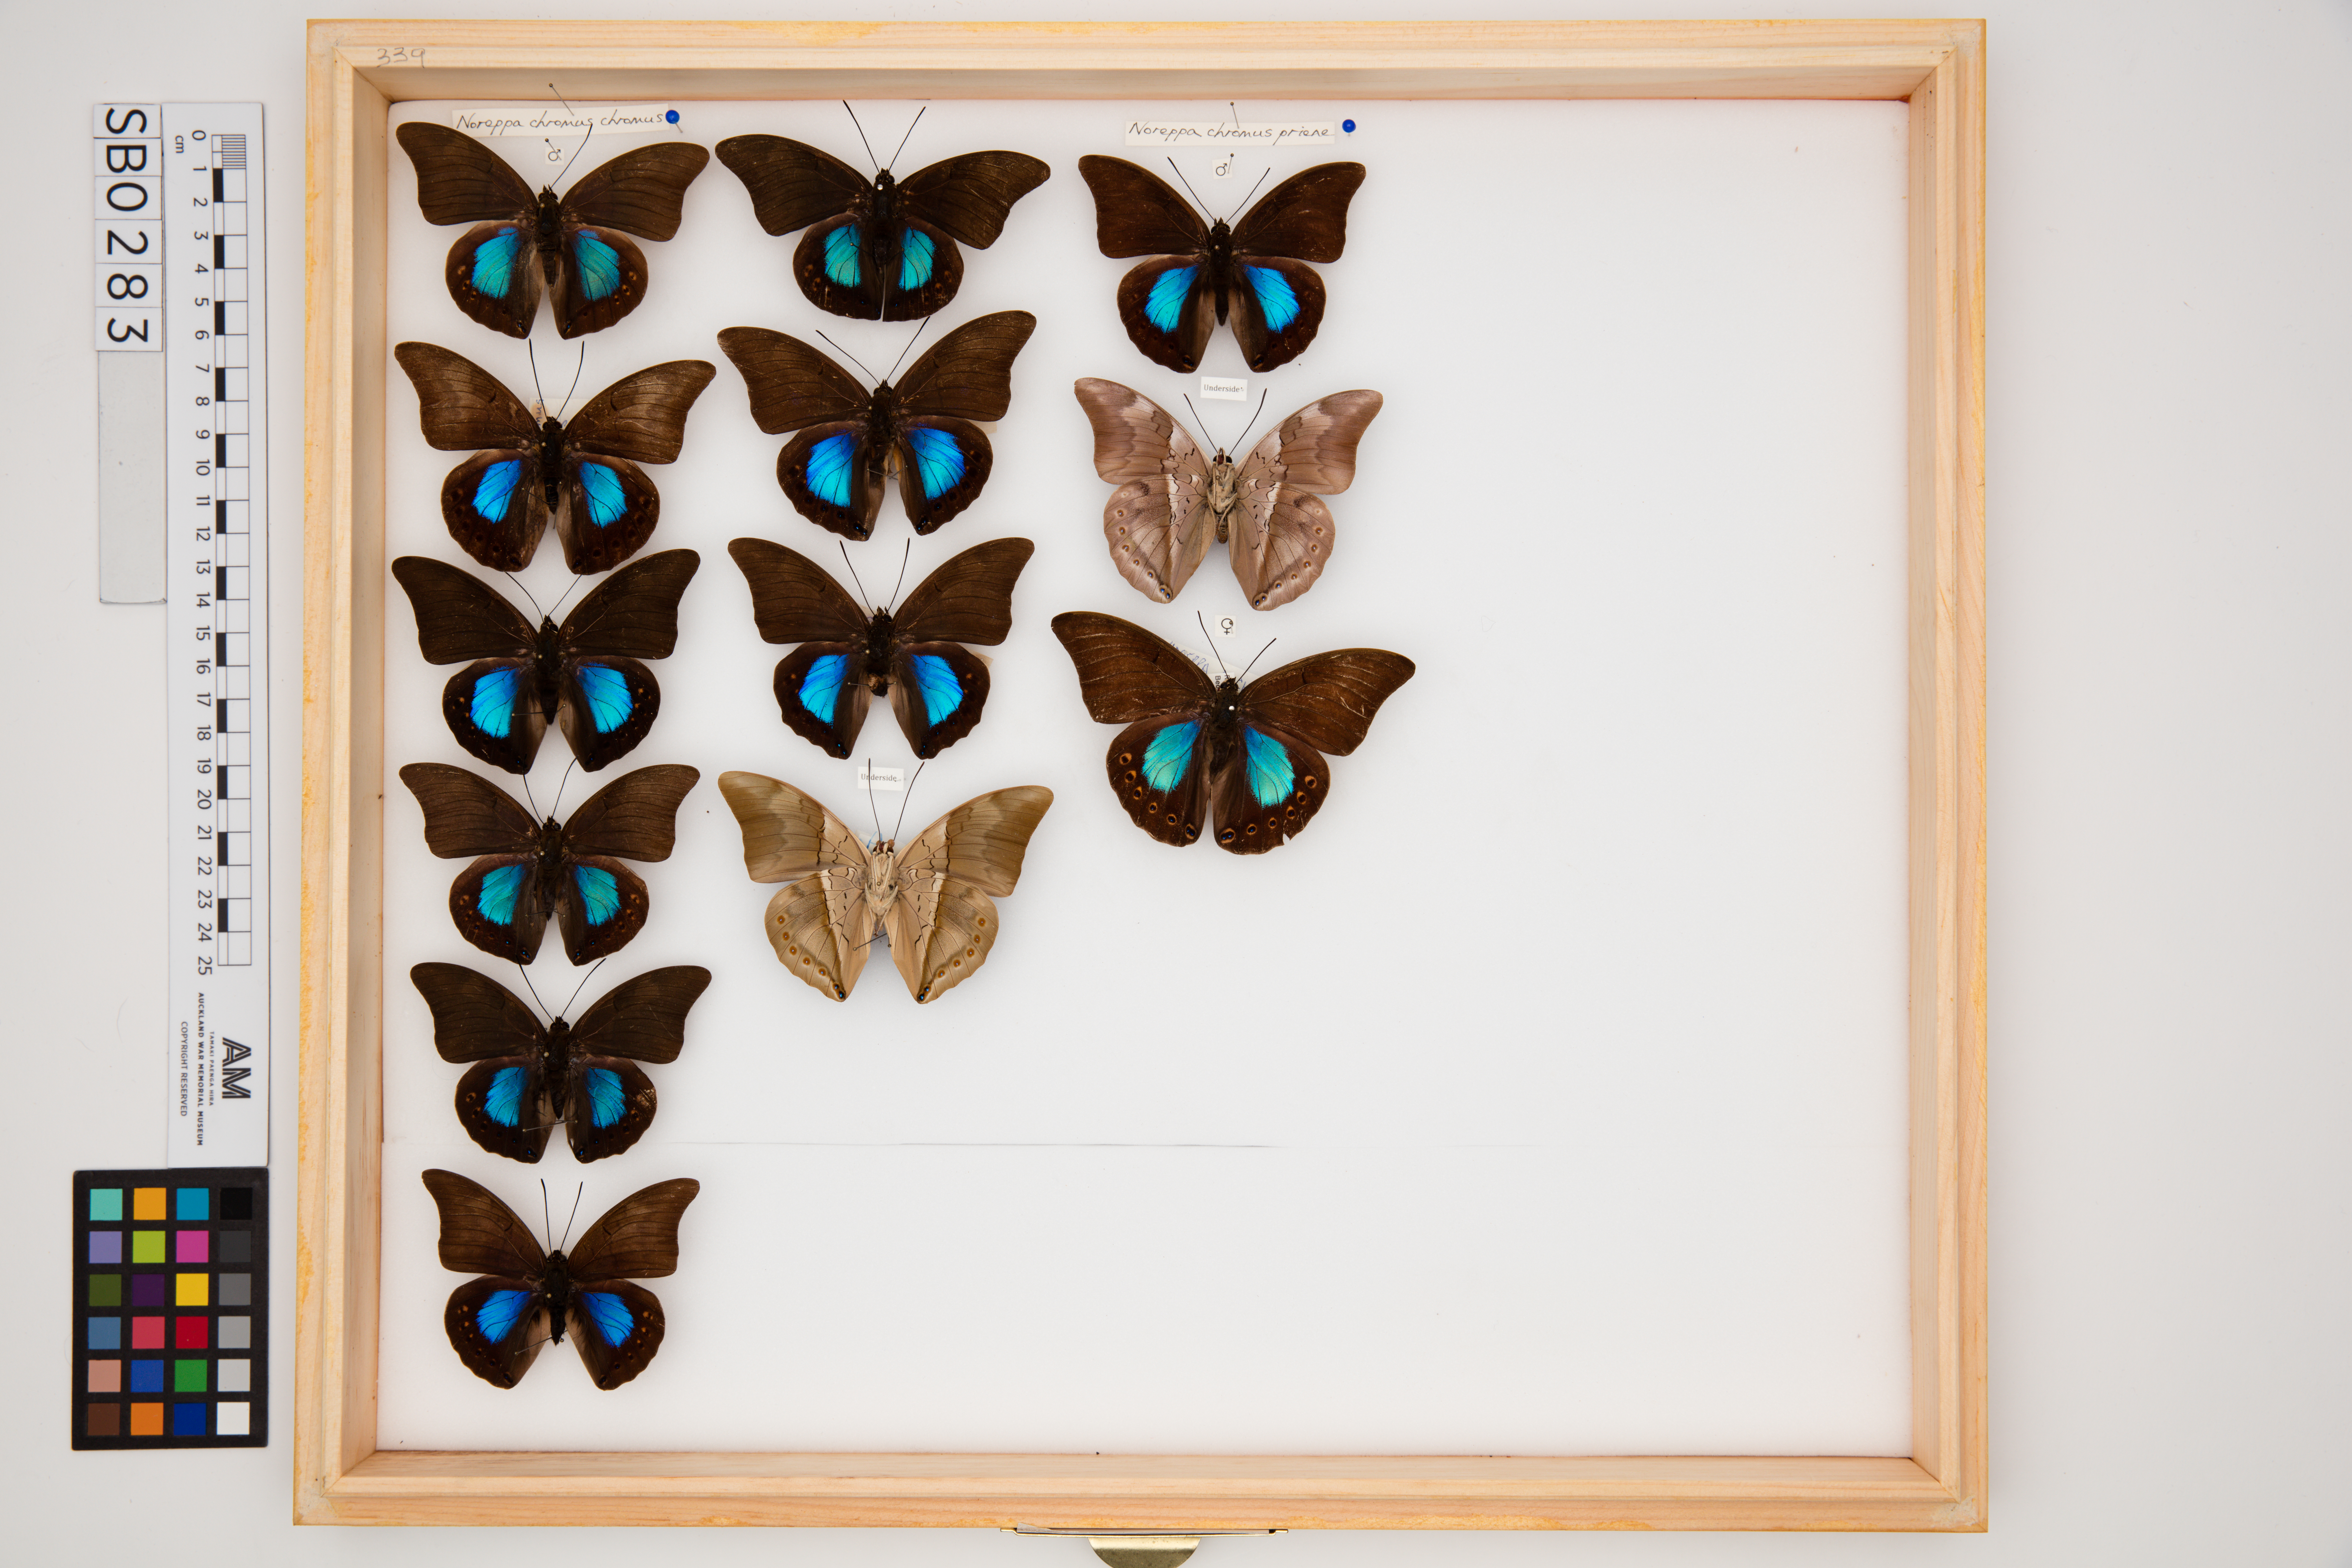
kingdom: Animalia
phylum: Arthropoda
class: Insecta
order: Lepidoptera
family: Nymphalidae
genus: Noreppa
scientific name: Noreppa chromus
